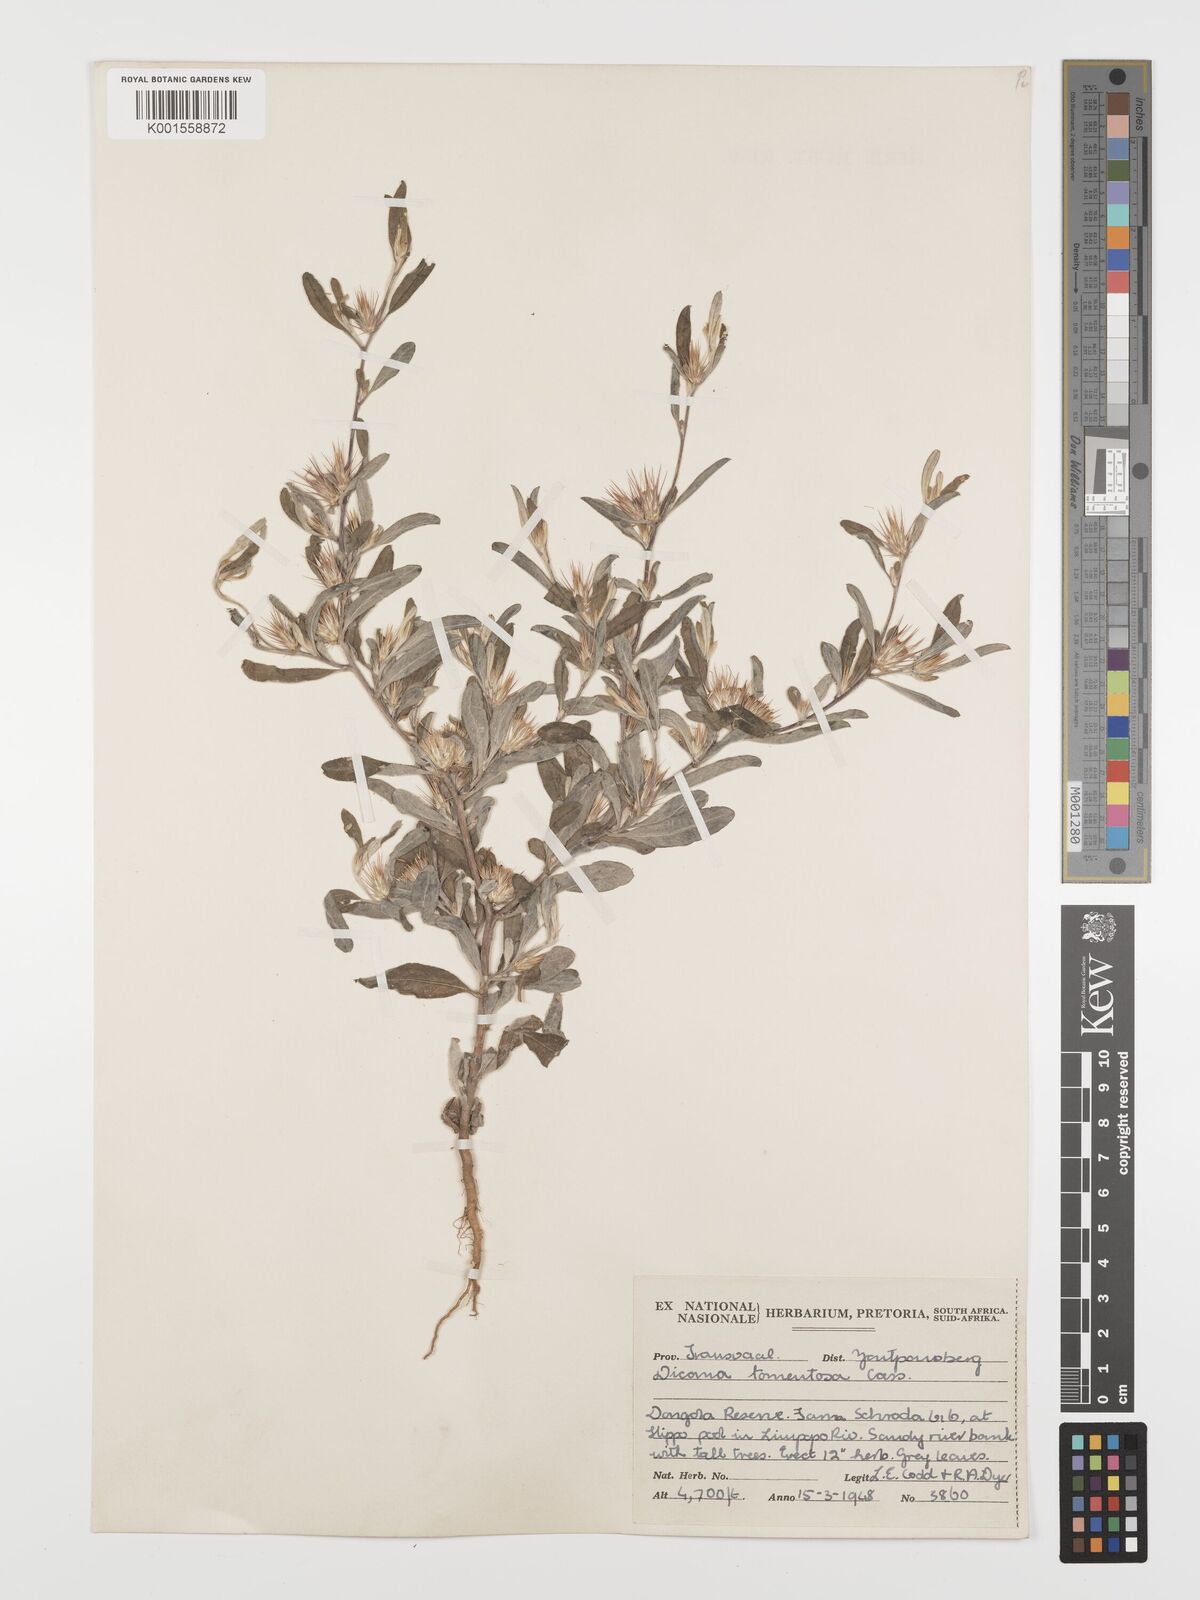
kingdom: Plantae
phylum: Tracheophyta
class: Magnoliopsida
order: Asterales
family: Asteraceae
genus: Dicoma
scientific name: Dicoma tomentosa
